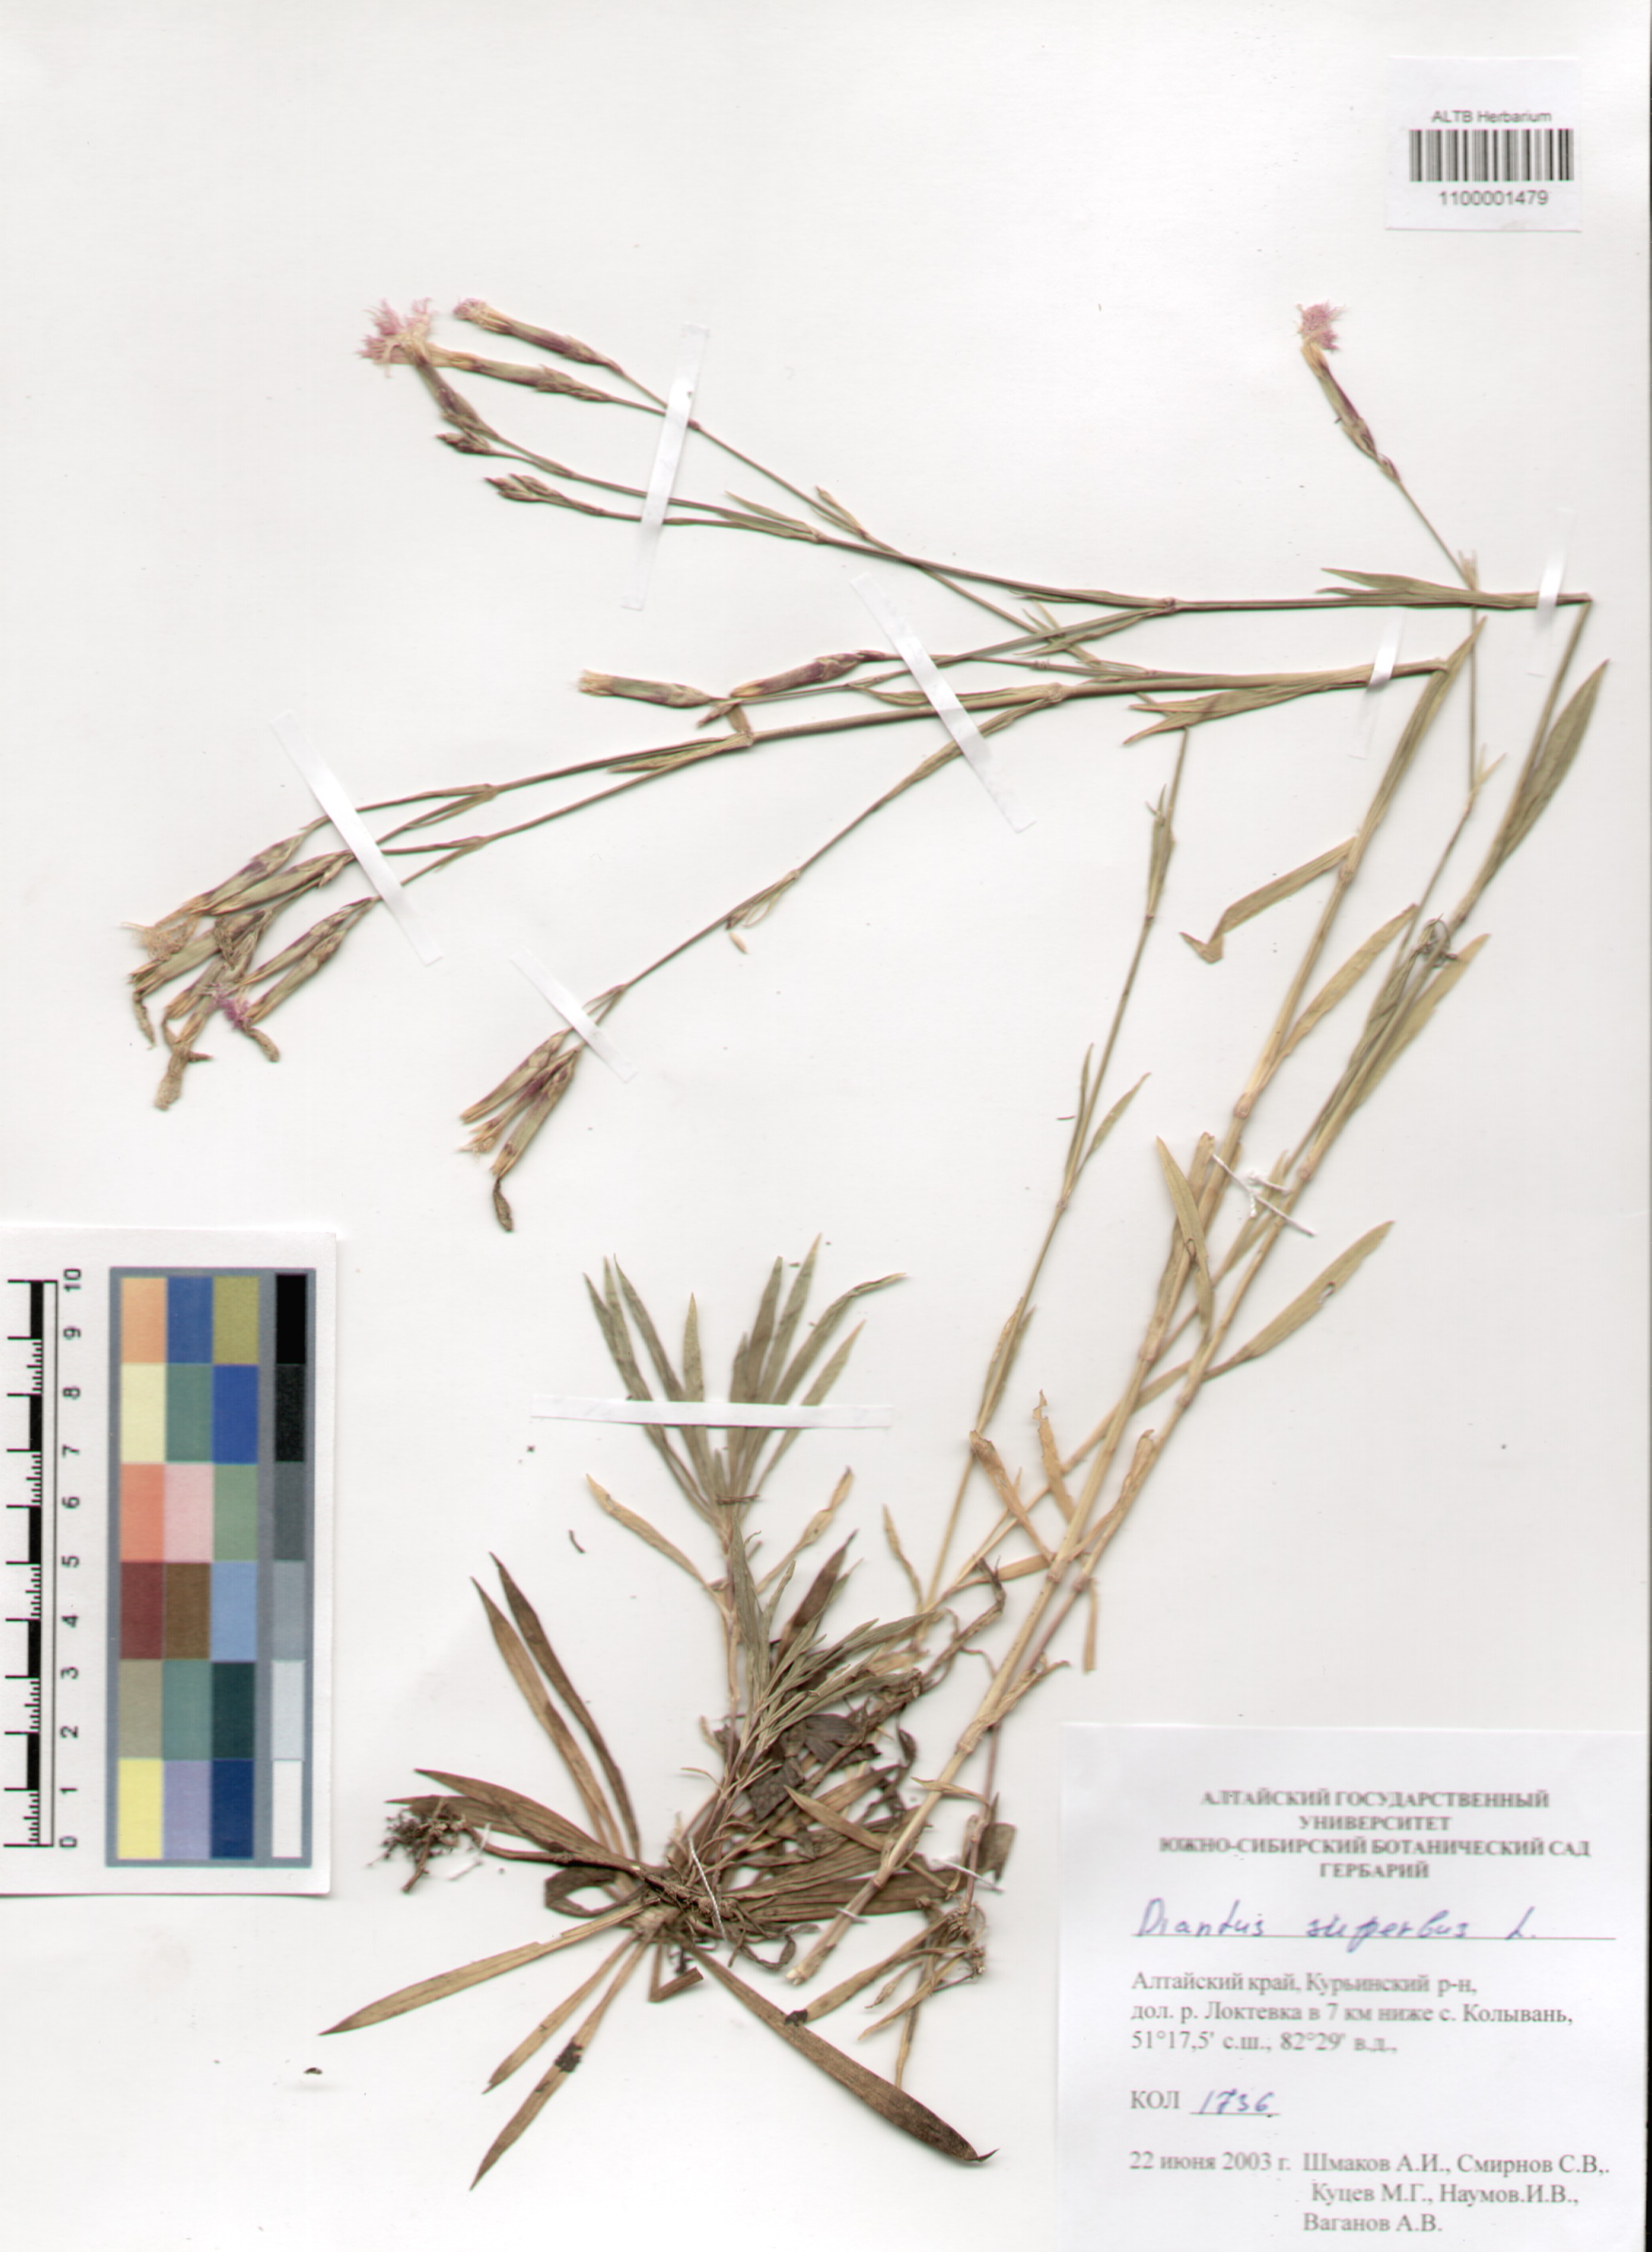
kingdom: Plantae
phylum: Tracheophyta
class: Magnoliopsida
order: Caryophyllales
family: Caryophyllaceae
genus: Dianthus
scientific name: Dianthus superbus
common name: Fringed pink
